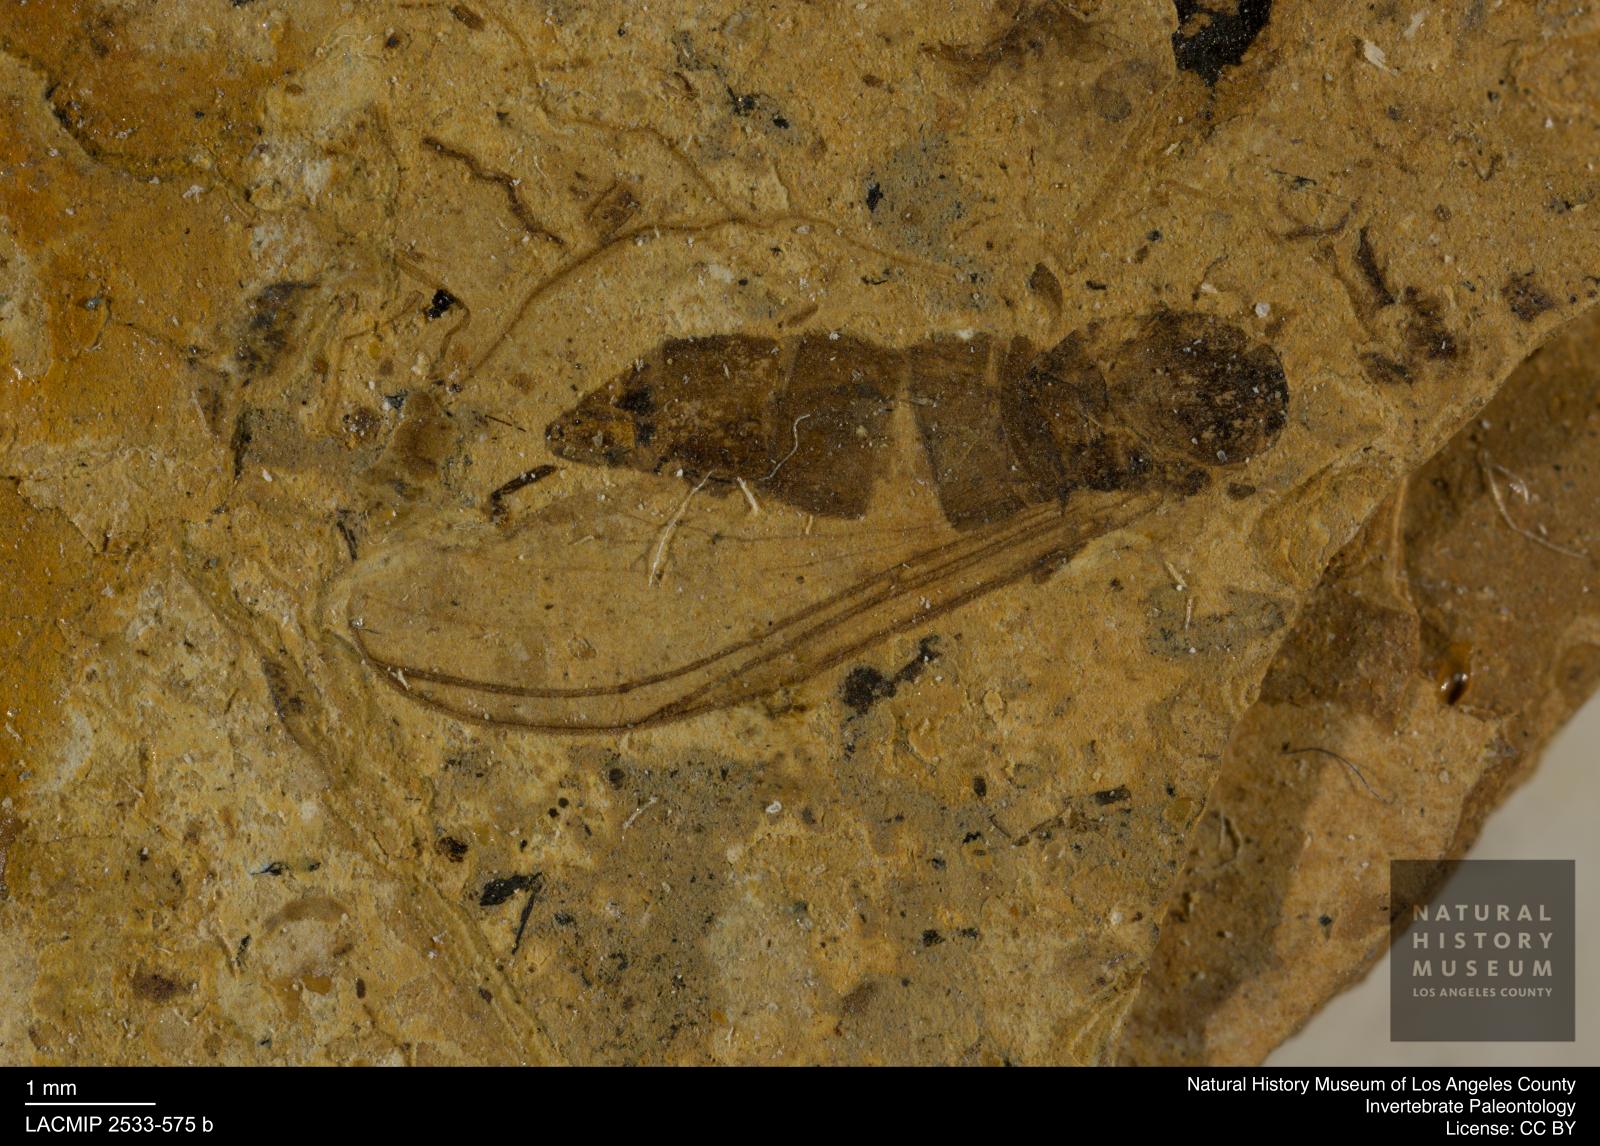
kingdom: Animalia
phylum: Arthropoda
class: Insecta
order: Diptera
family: Sciaridae
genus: Sciara
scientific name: Sciara cryptocephala
